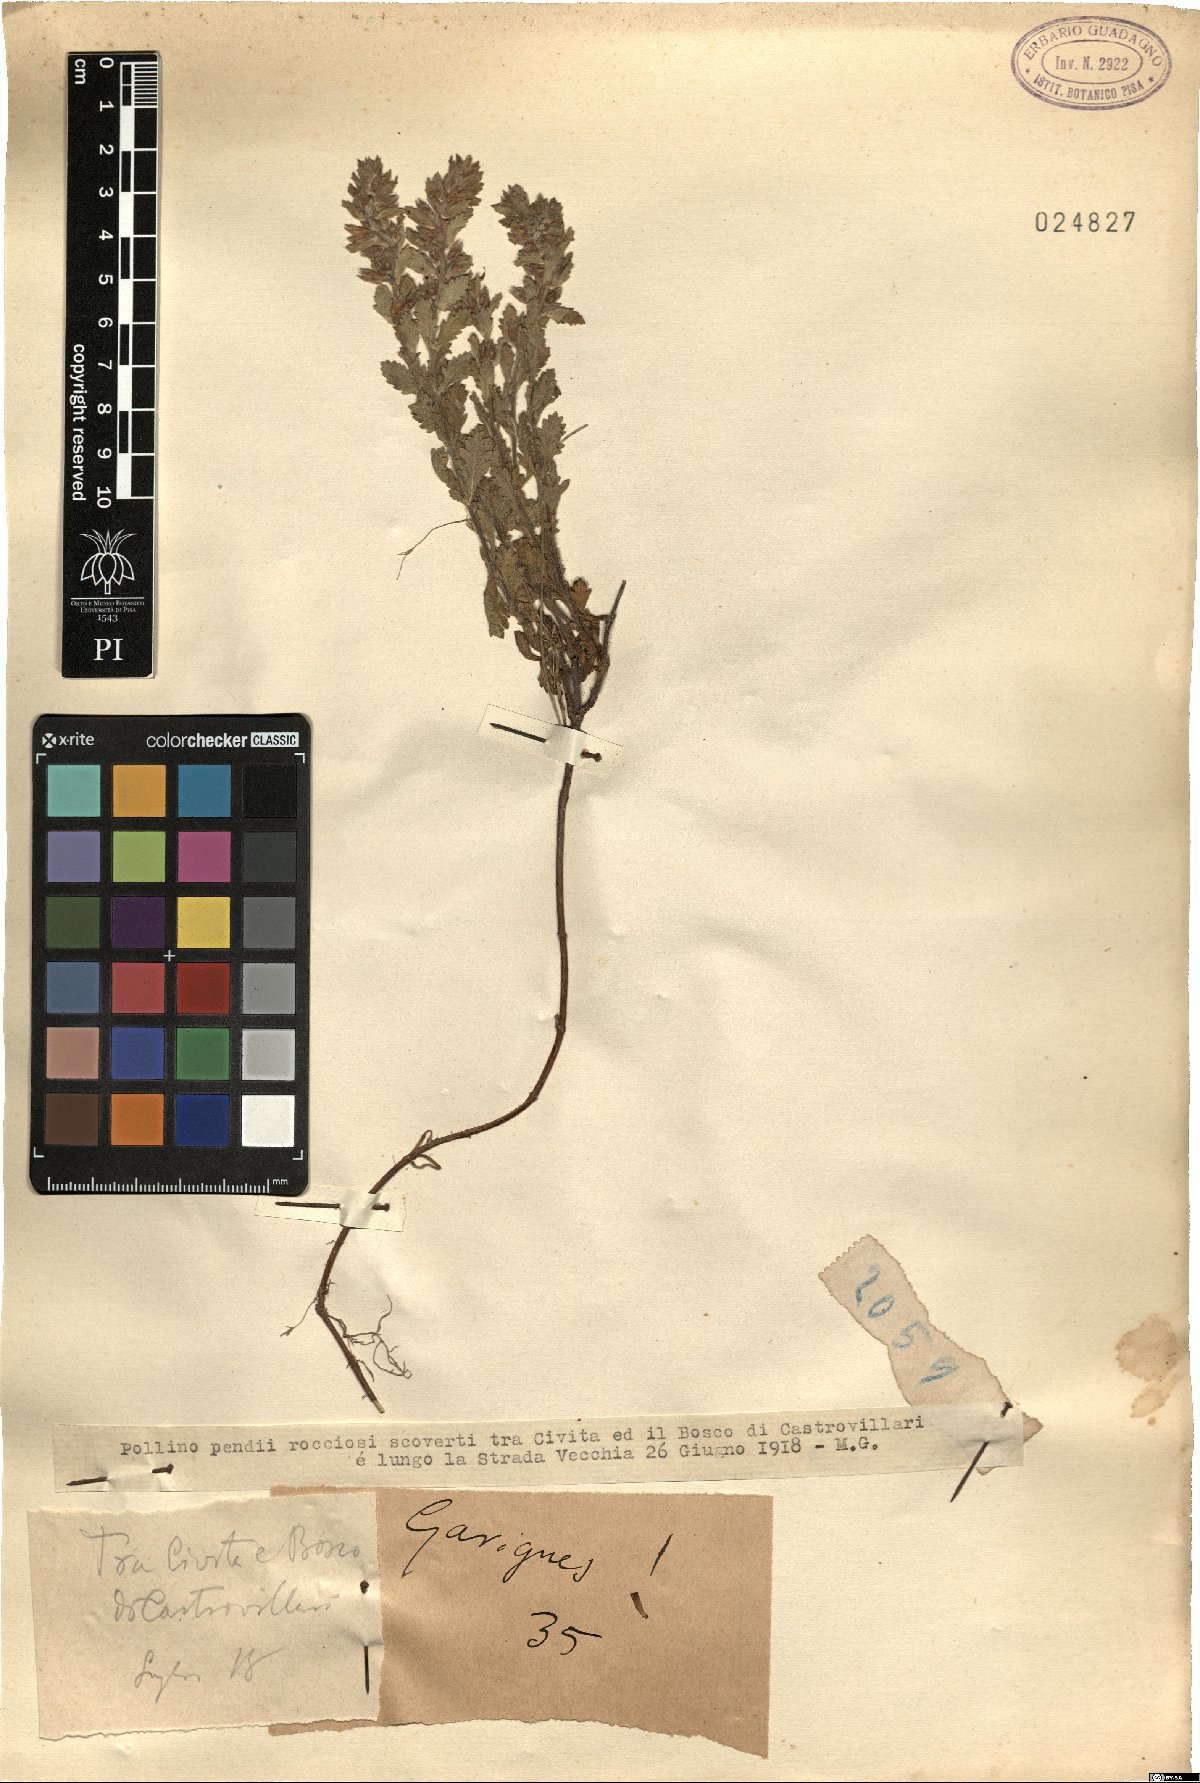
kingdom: Plantae
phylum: Tracheophyta
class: Magnoliopsida
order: Lamiales
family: Lamiaceae
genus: Teucrium
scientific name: Teucrium
